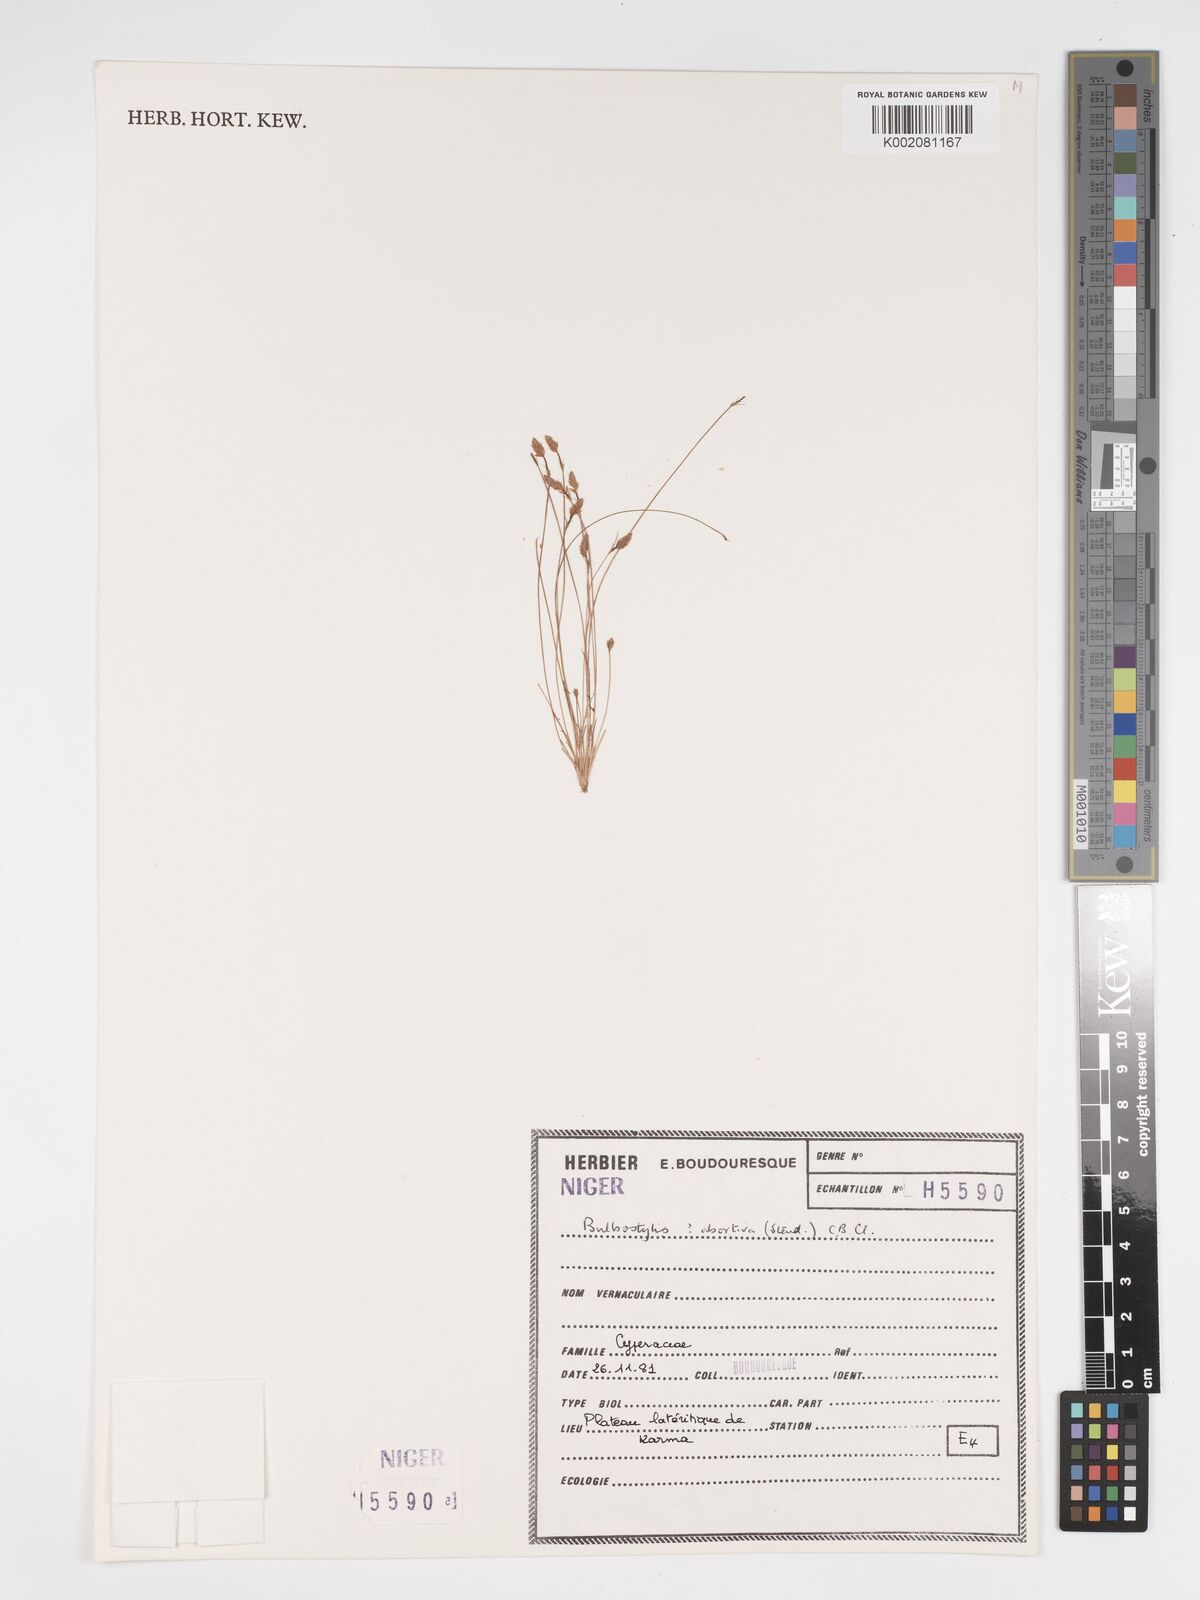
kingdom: Plantae
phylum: Tracheophyta
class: Liliopsida
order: Poales
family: Cyperaceae
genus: Bulbostylis
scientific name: Bulbostylis abortiva
